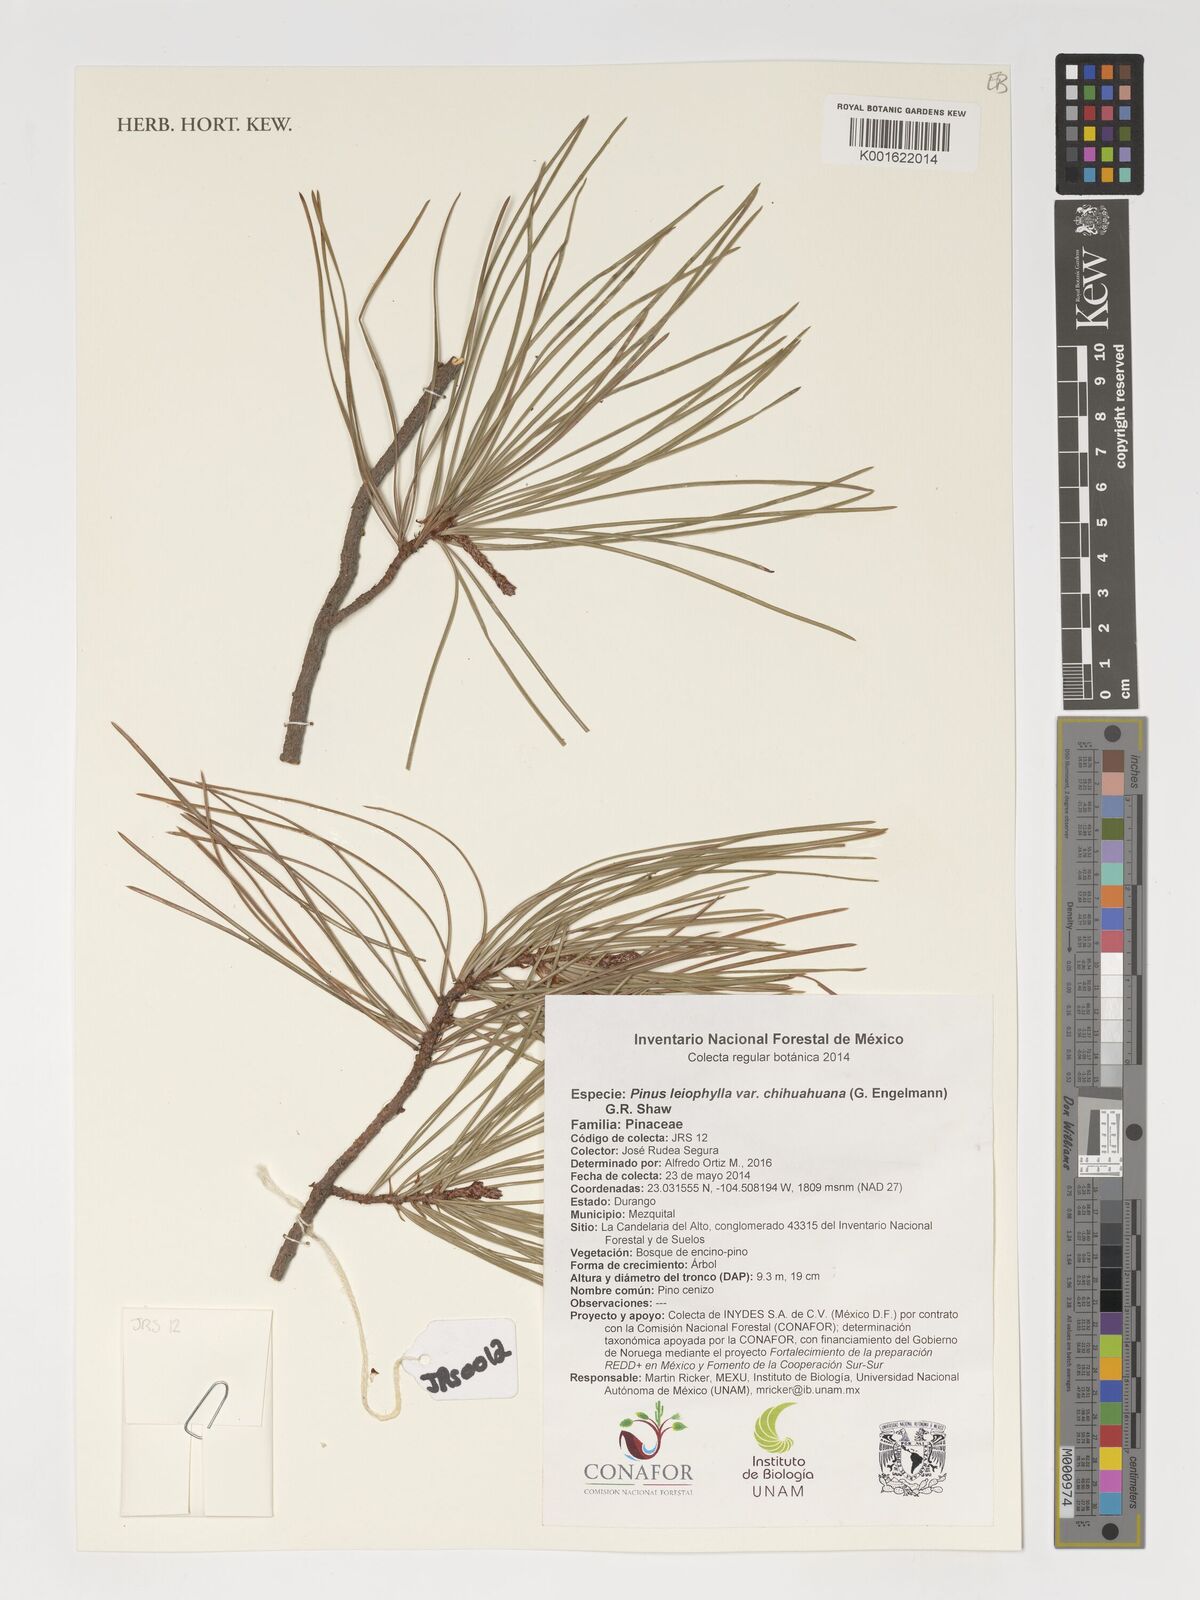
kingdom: Plantae
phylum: Tracheophyta
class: Pinopsida
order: Pinales
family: Pinaceae
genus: Pinus
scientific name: Pinus leiophylla
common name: Chihuahua pine
